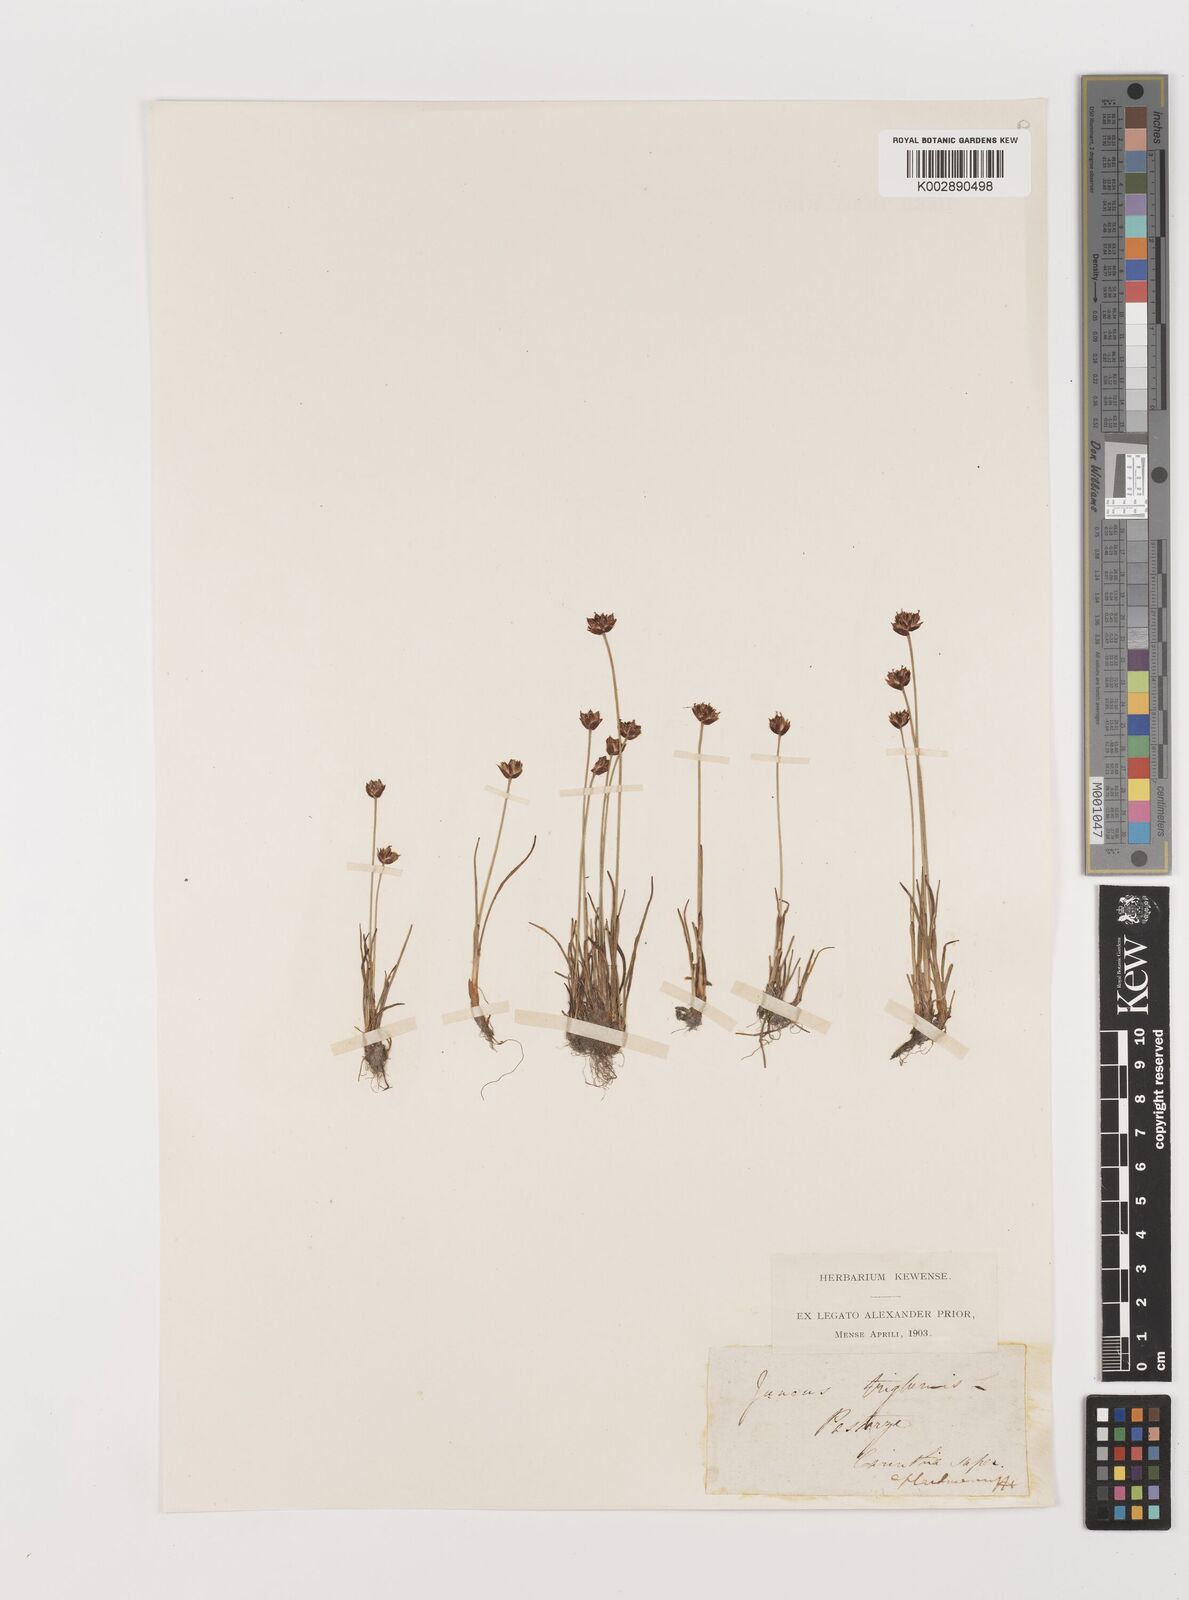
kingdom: Plantae
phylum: Tracheophyta
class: Liliopsida
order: Poales
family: Juncaceae
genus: Juncus
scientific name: Juncus triglumis
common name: Three-flowered rush
